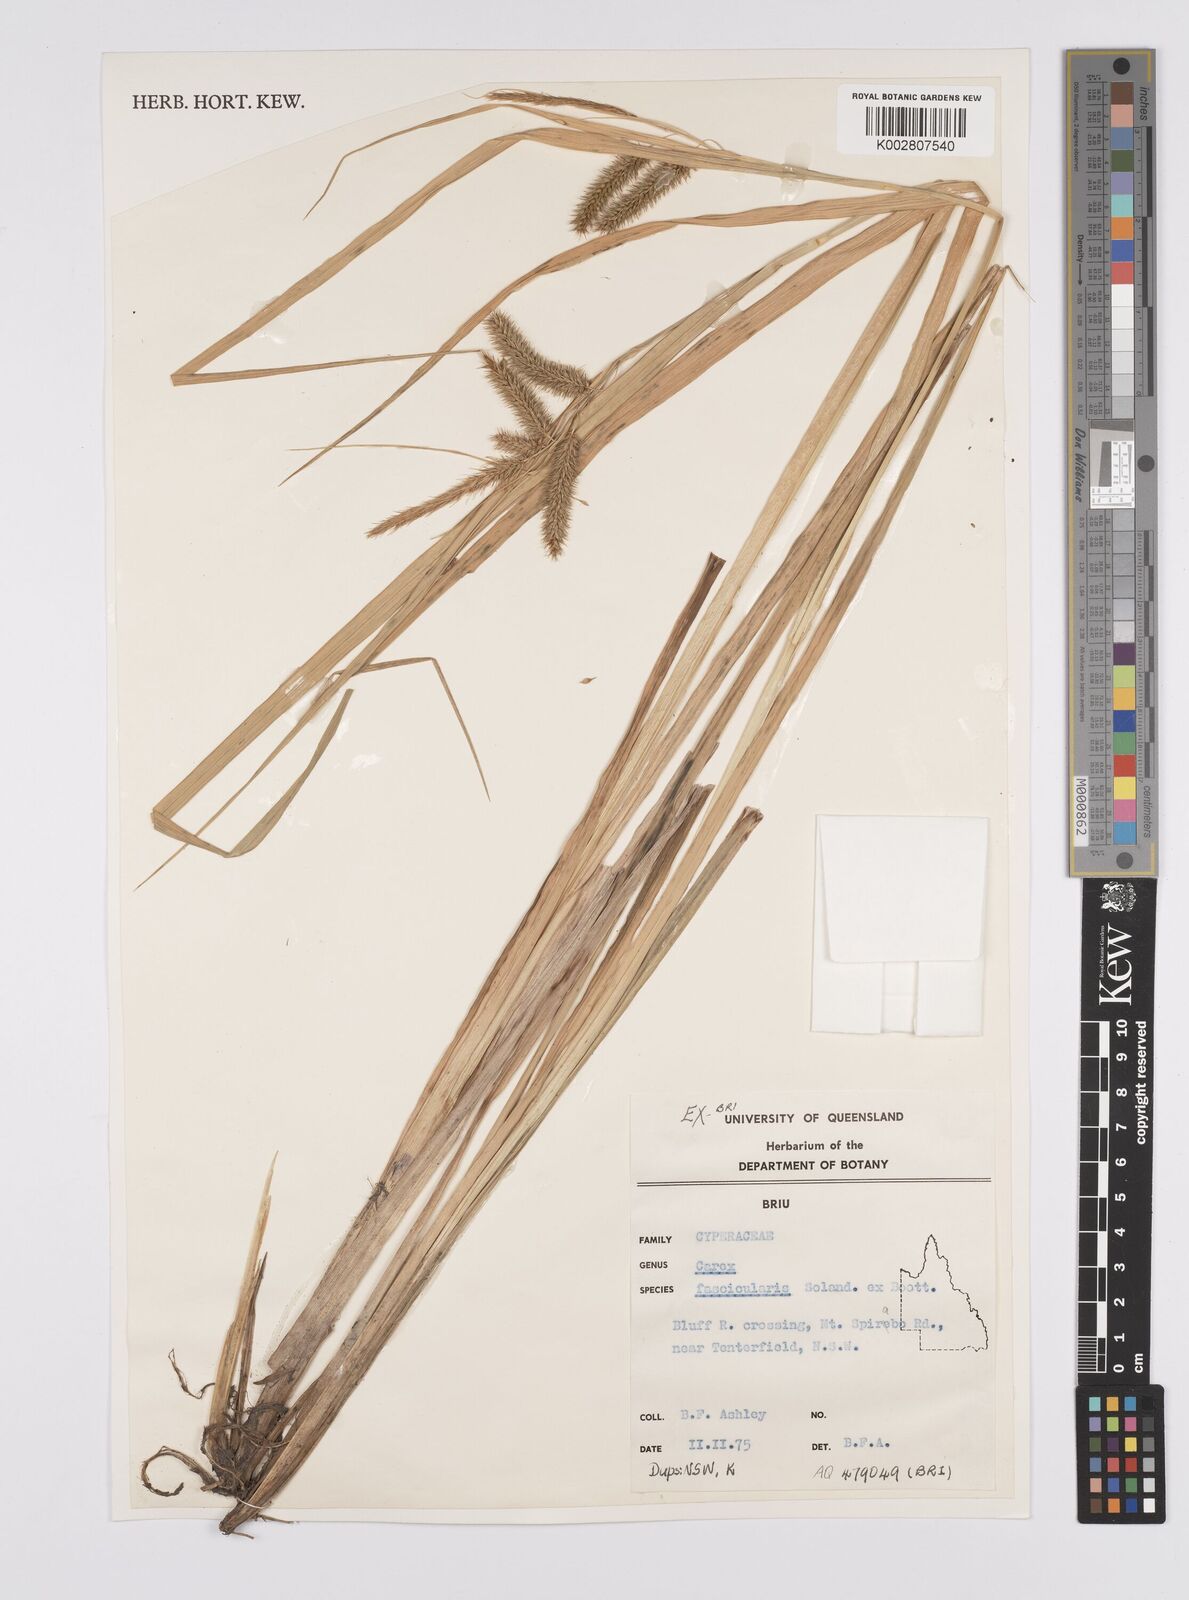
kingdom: Plantae
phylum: Tracheophyta
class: Liliopsida
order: Poales
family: Cyperaceae
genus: Carex
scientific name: Carex cespitosa
